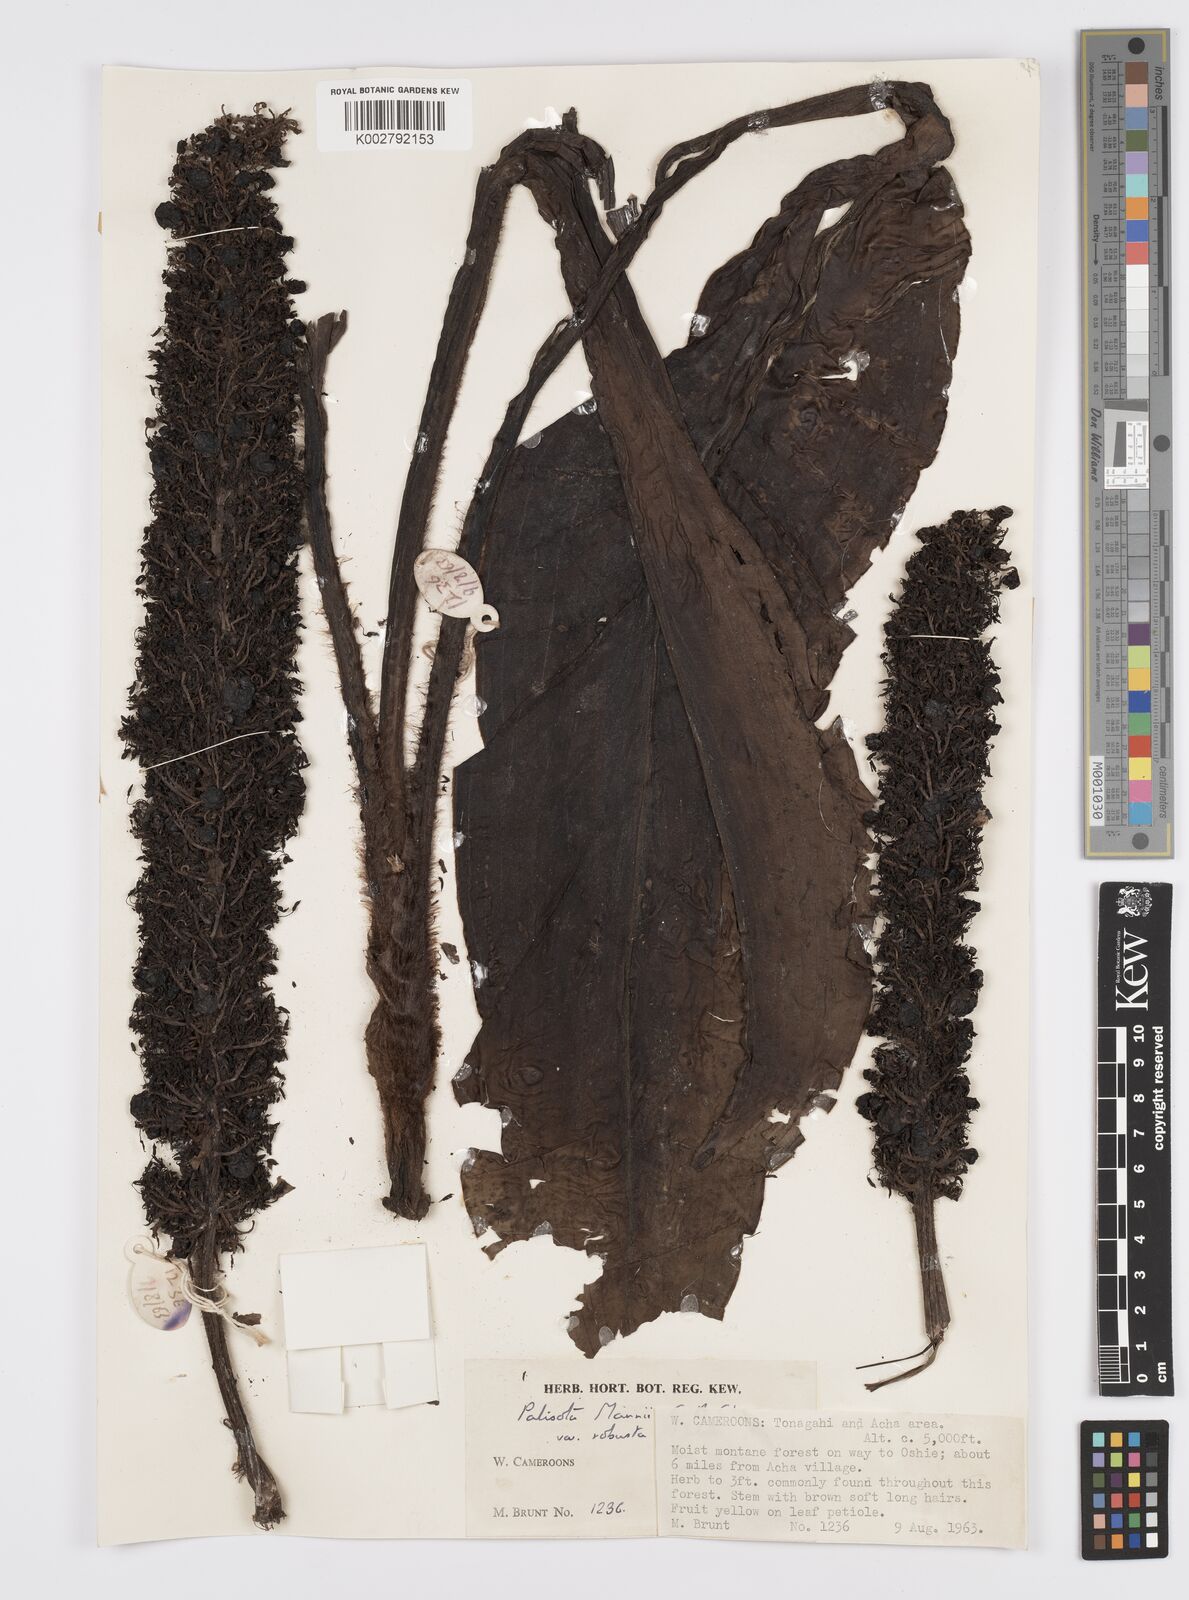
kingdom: Plantae
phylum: Tracheophyta
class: Liliopsida
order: Commelinales
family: Commelinaceae
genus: Palisota
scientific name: Palisota mannii
